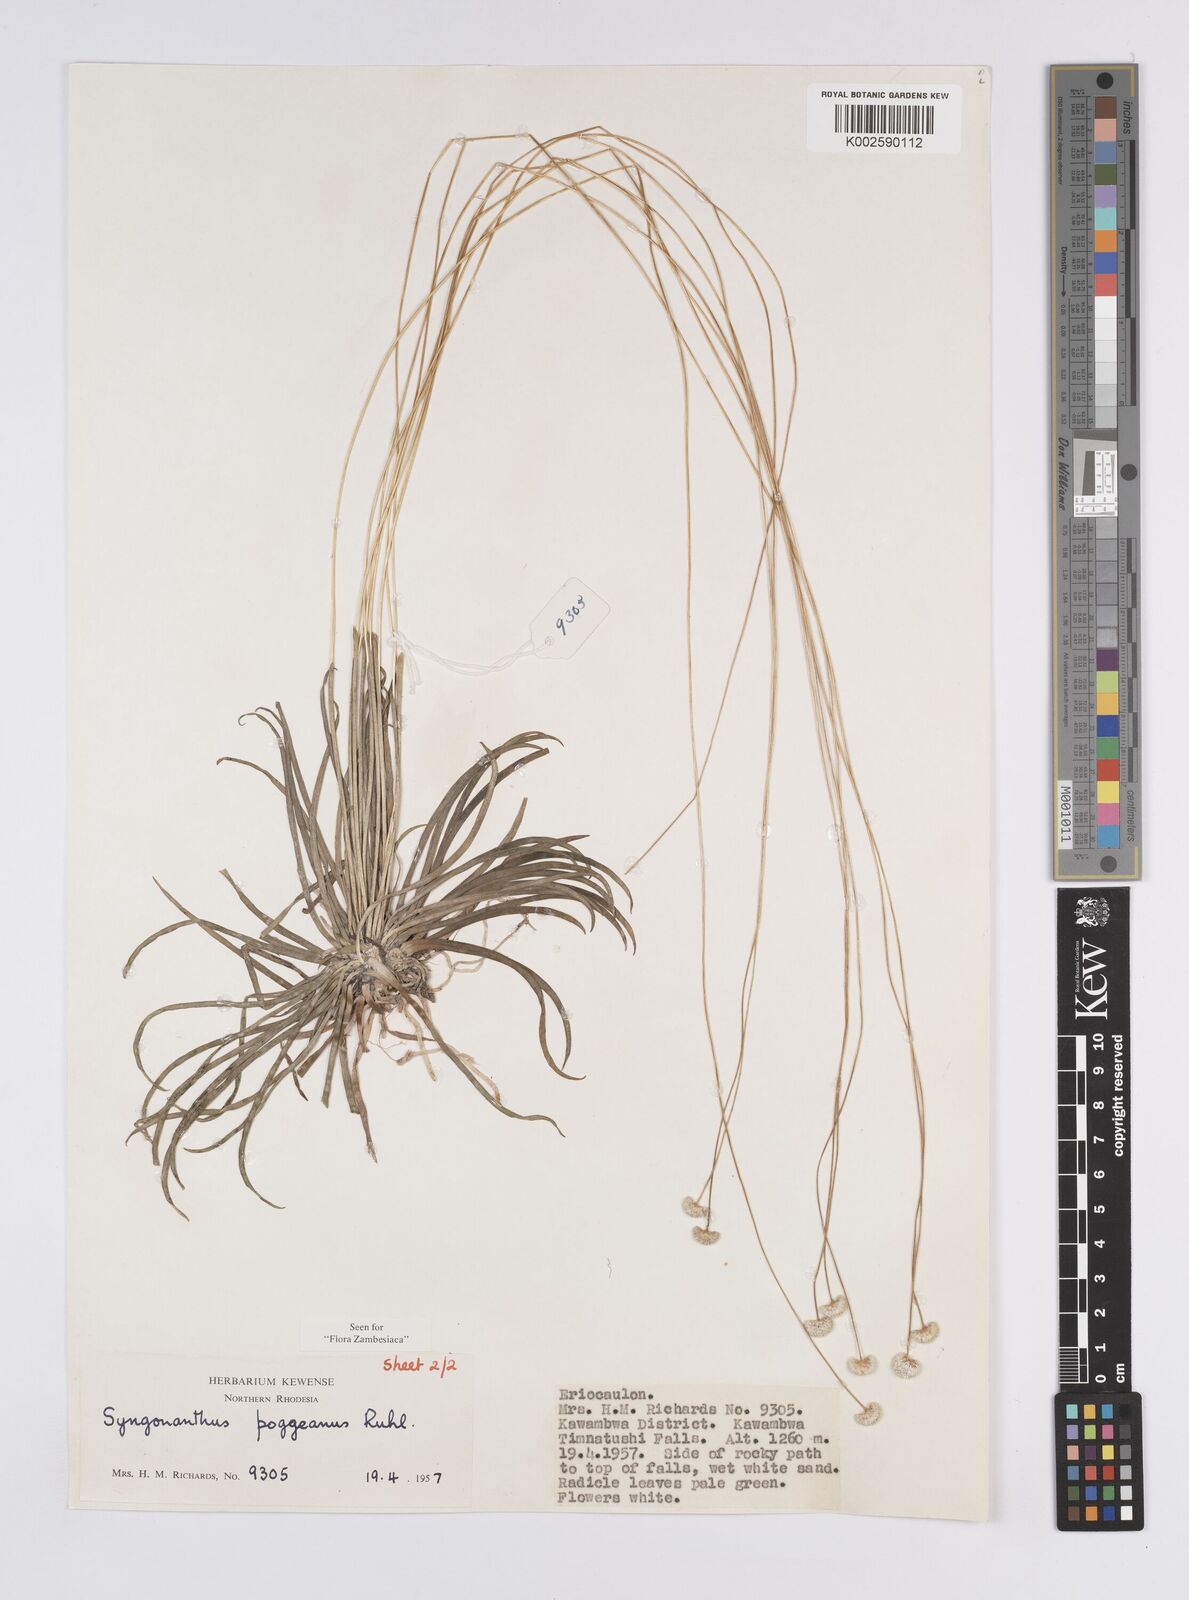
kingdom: Plantae
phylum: Tracheophyta
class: Liliopsida
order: Poales
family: Eriocaulaceae
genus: Syngonanthus
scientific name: Syngonanthus poggeanus
